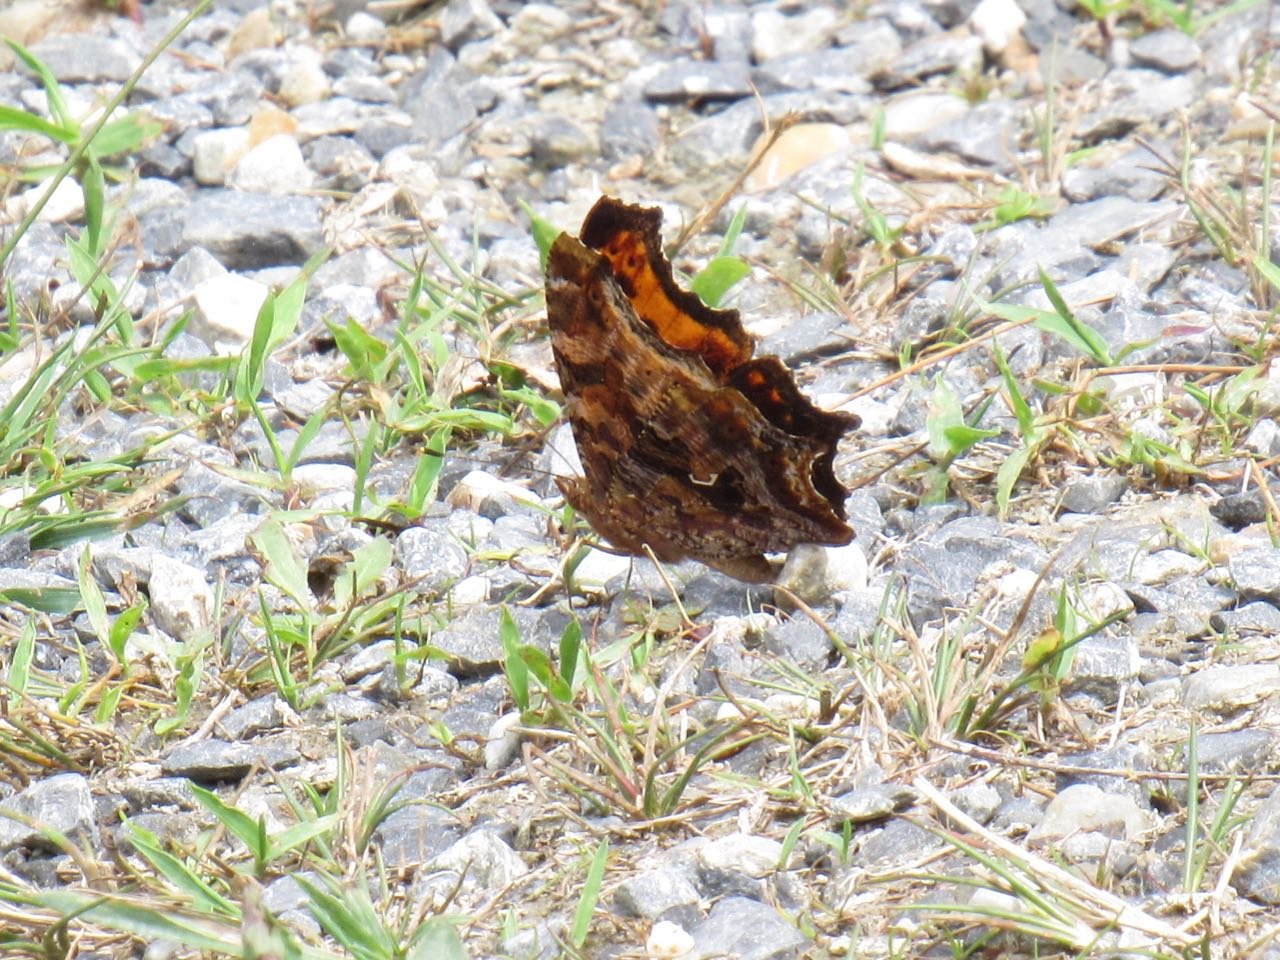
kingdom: Animalia
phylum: Arthropoda
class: Insecta
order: Lepidoptera
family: Nymphalidae
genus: Polygonia
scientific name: Polygonia comma
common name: Eastern Comma
